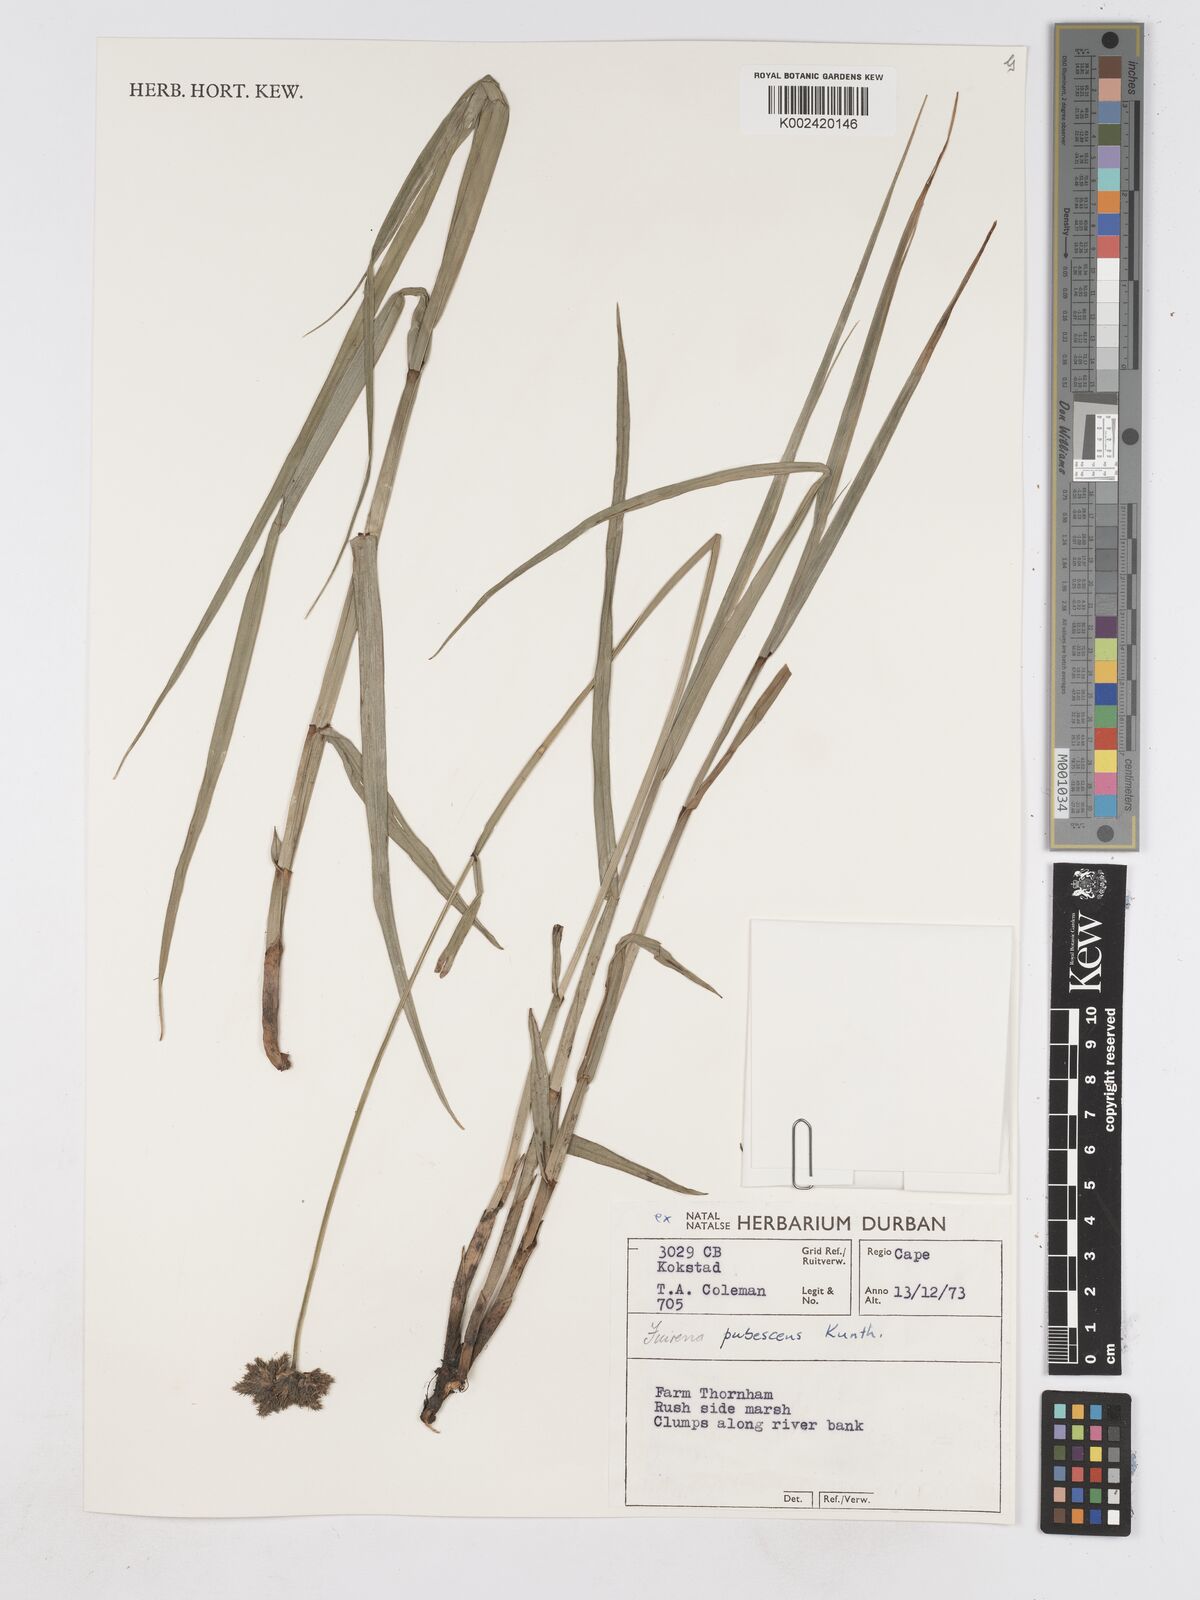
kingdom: Plantae
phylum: Tracheophyta
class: Liliopsida
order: Poales
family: Cyperaceae
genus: Fuirena
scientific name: Fuirena pubescens
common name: Hairy sedge
